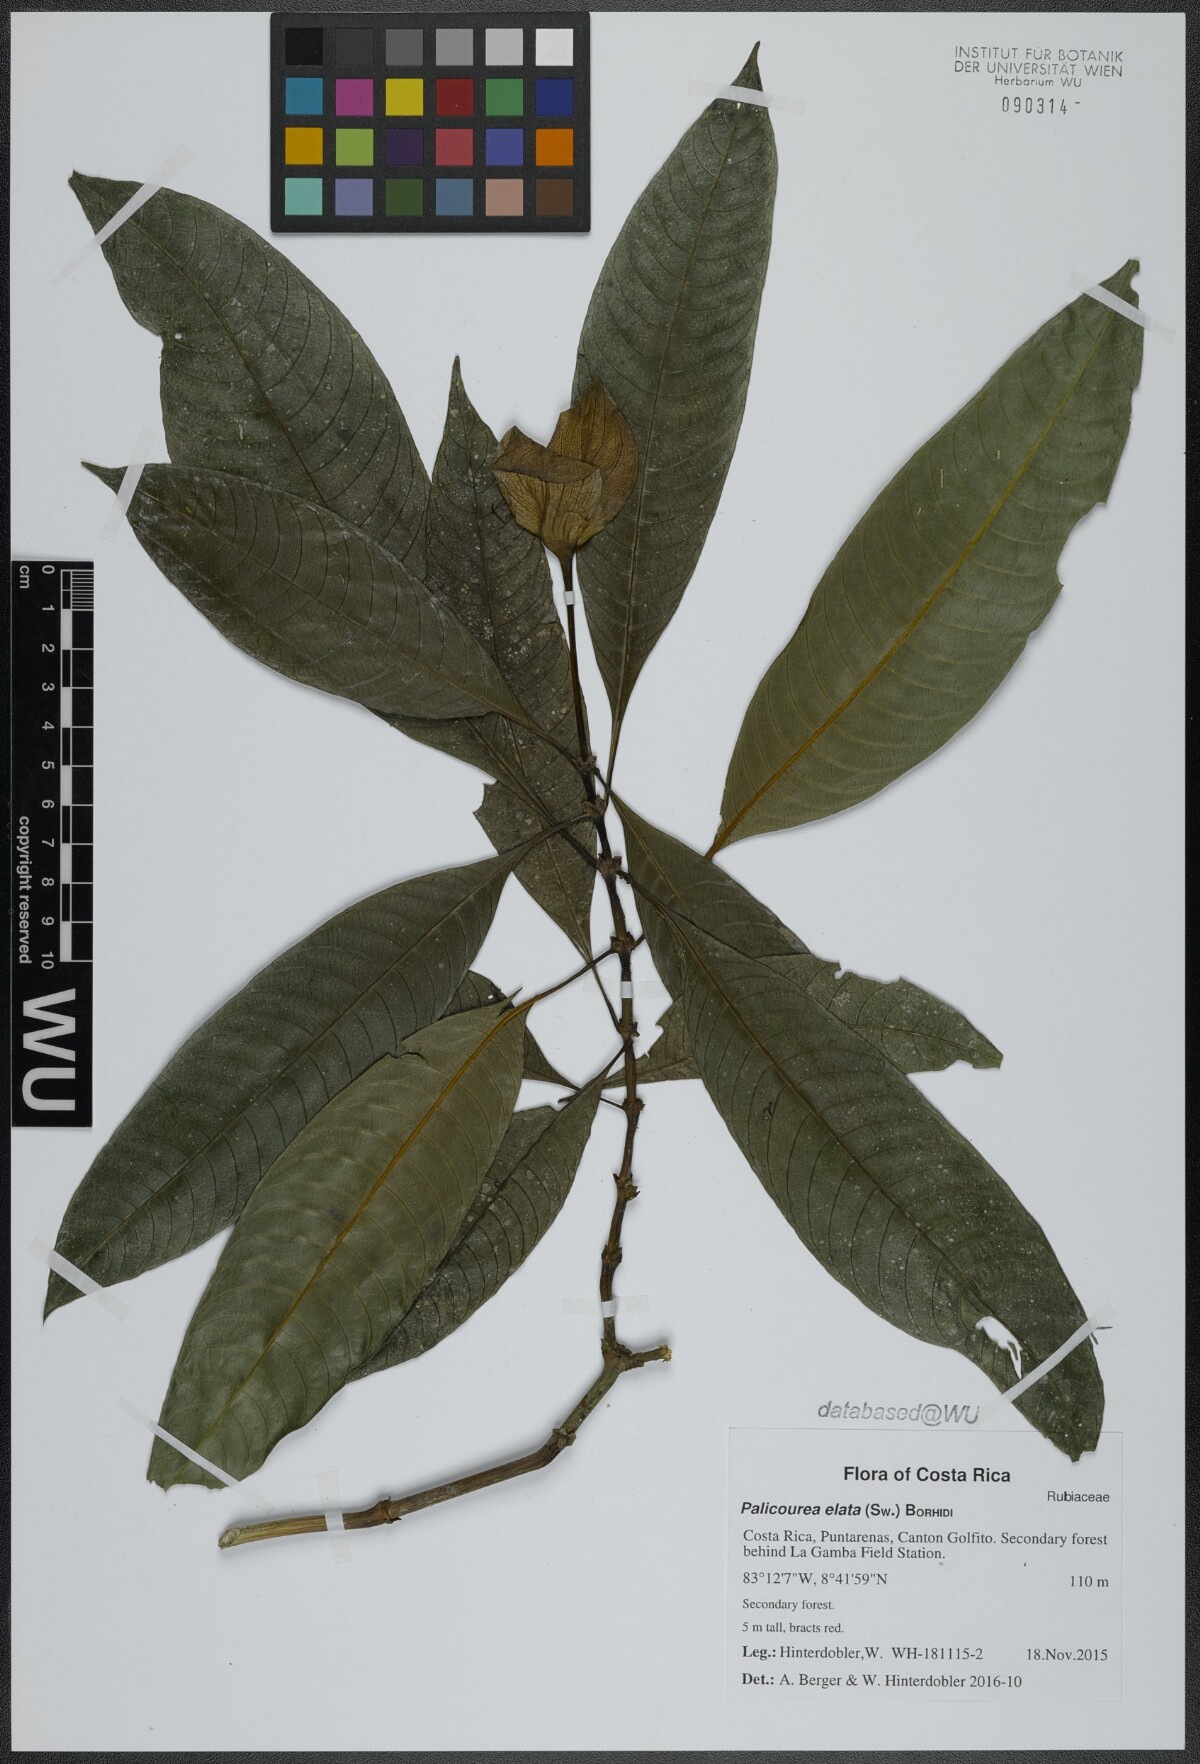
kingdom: Plantae
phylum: Tracheophyta
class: Magnoliopsida
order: Gentianales
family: Rubiaceae
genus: Palicourea
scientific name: Palicourea elata
